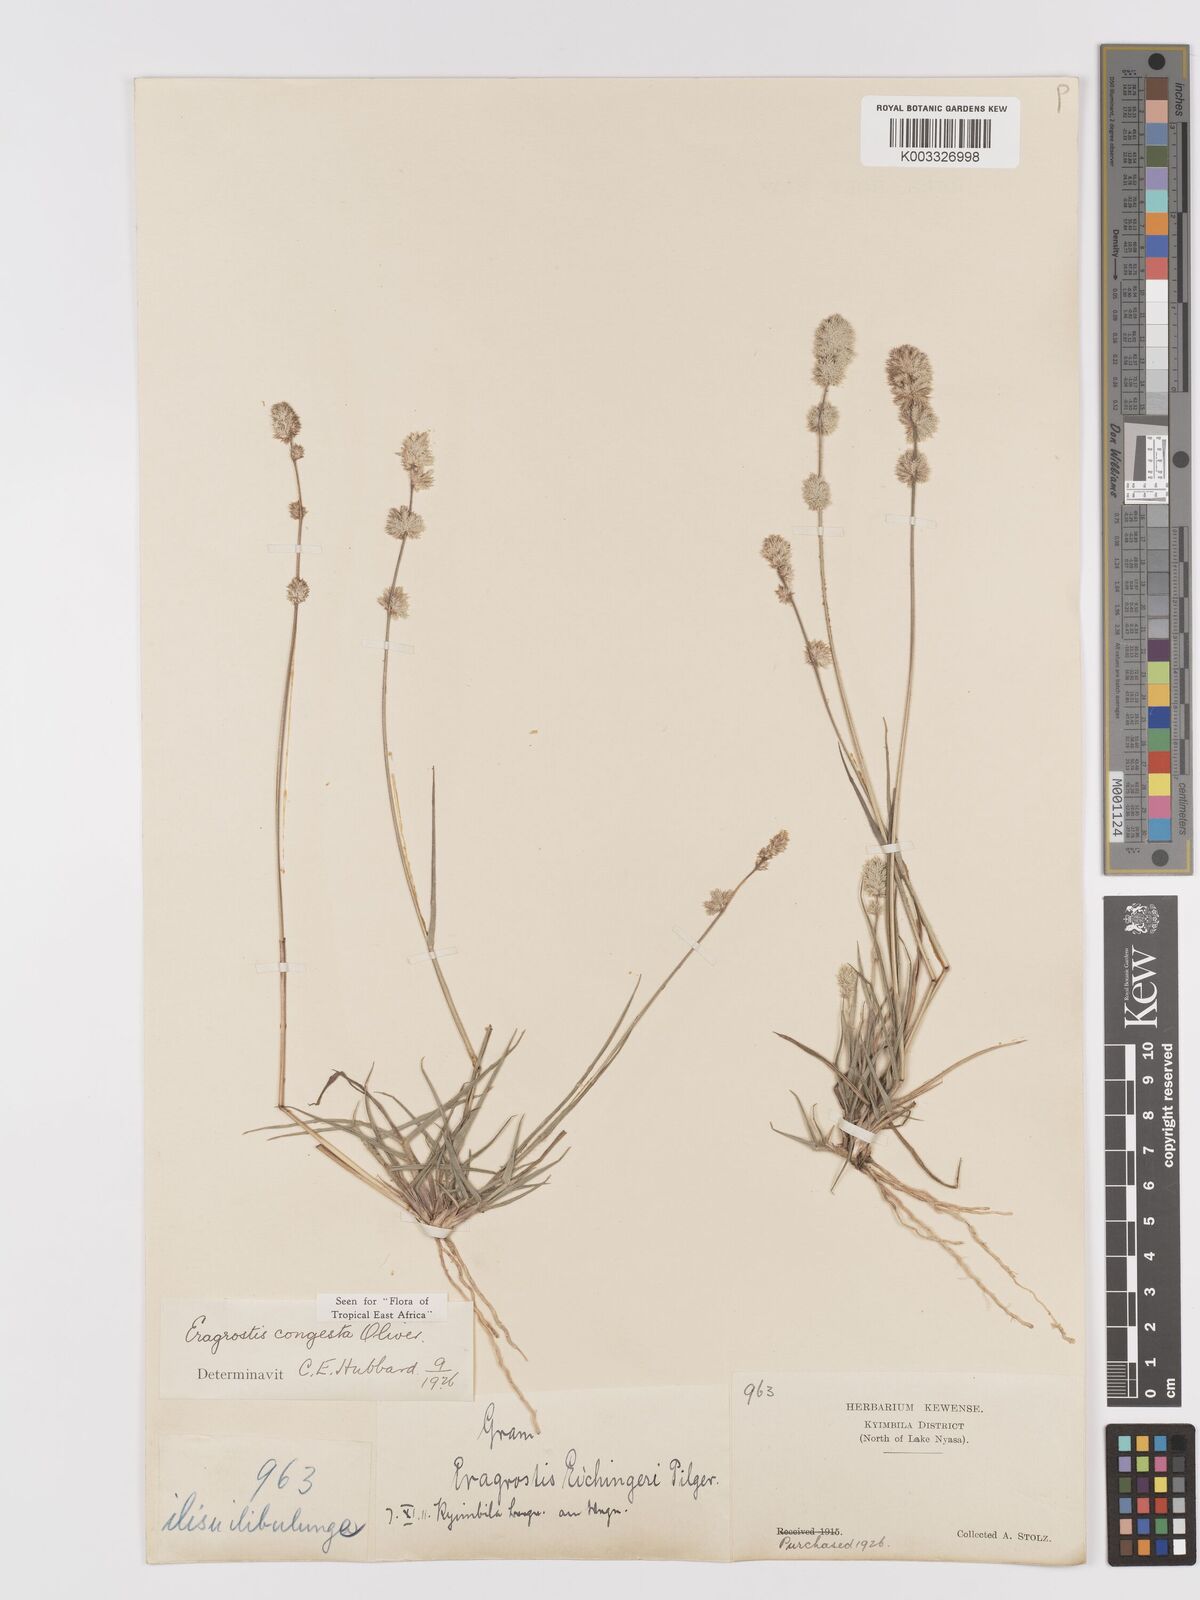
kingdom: Plantae
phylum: Tracheophyta
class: Liliopsida
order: Poales
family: Poaceae
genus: Eragrostis
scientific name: Eragrostis congesta
